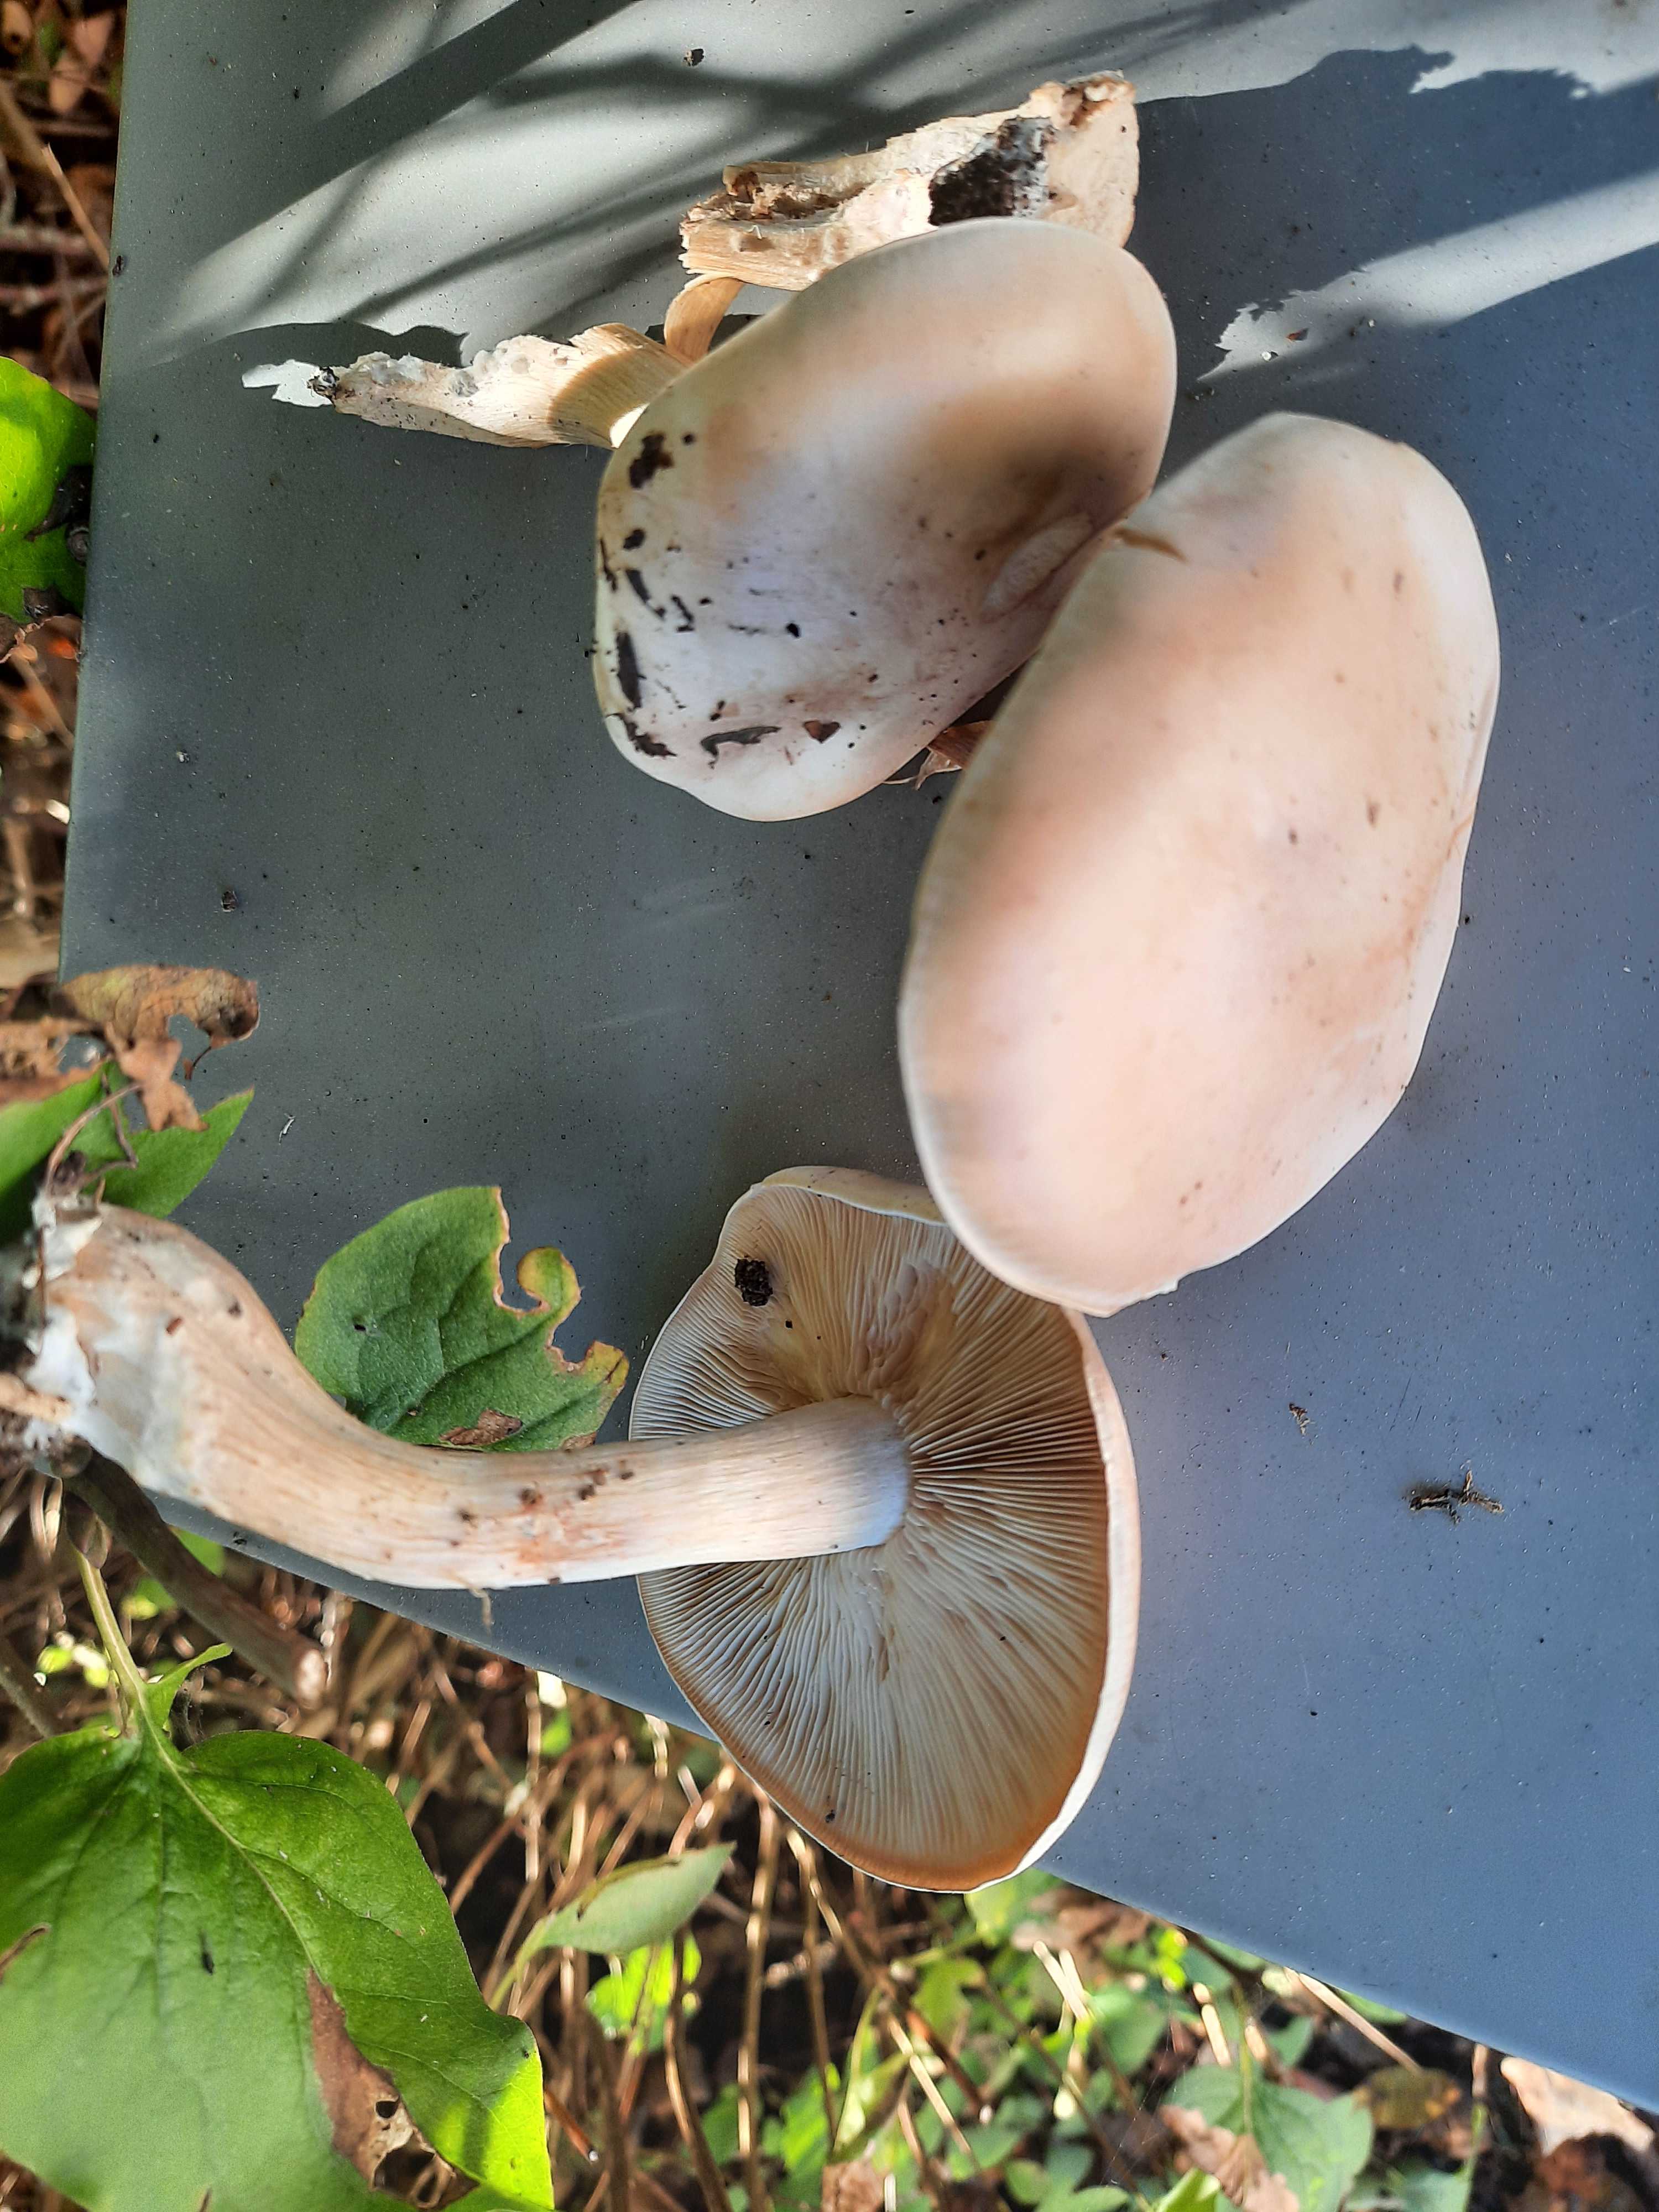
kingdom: Fungi
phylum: Basidiomycota
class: Agaricomycetes
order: Agaricales
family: Tricholomataceae
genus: Lepista
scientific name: Lepista irina
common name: violduftende hekseringshat
